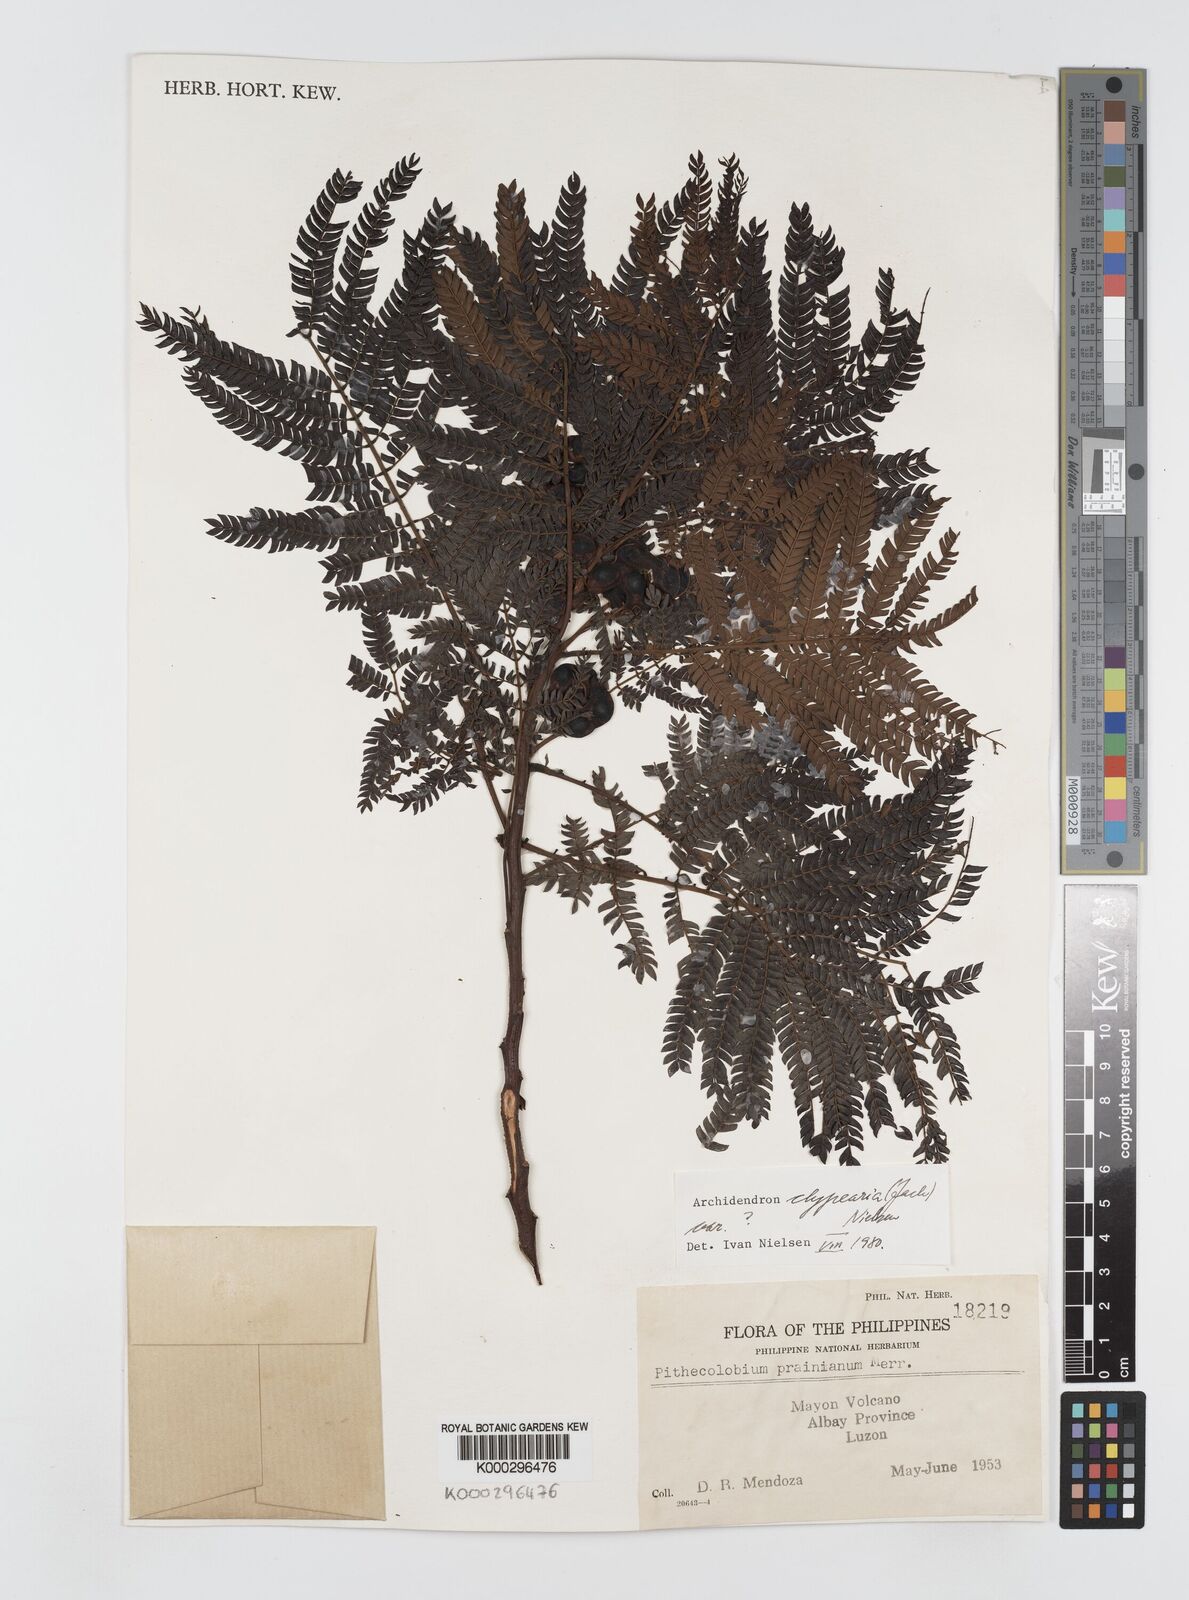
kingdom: Plantae
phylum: Tracheophyta
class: Magnoliopsida
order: Fabales
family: Fabaceae
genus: Archidendron
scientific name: Archidendron clypearia
